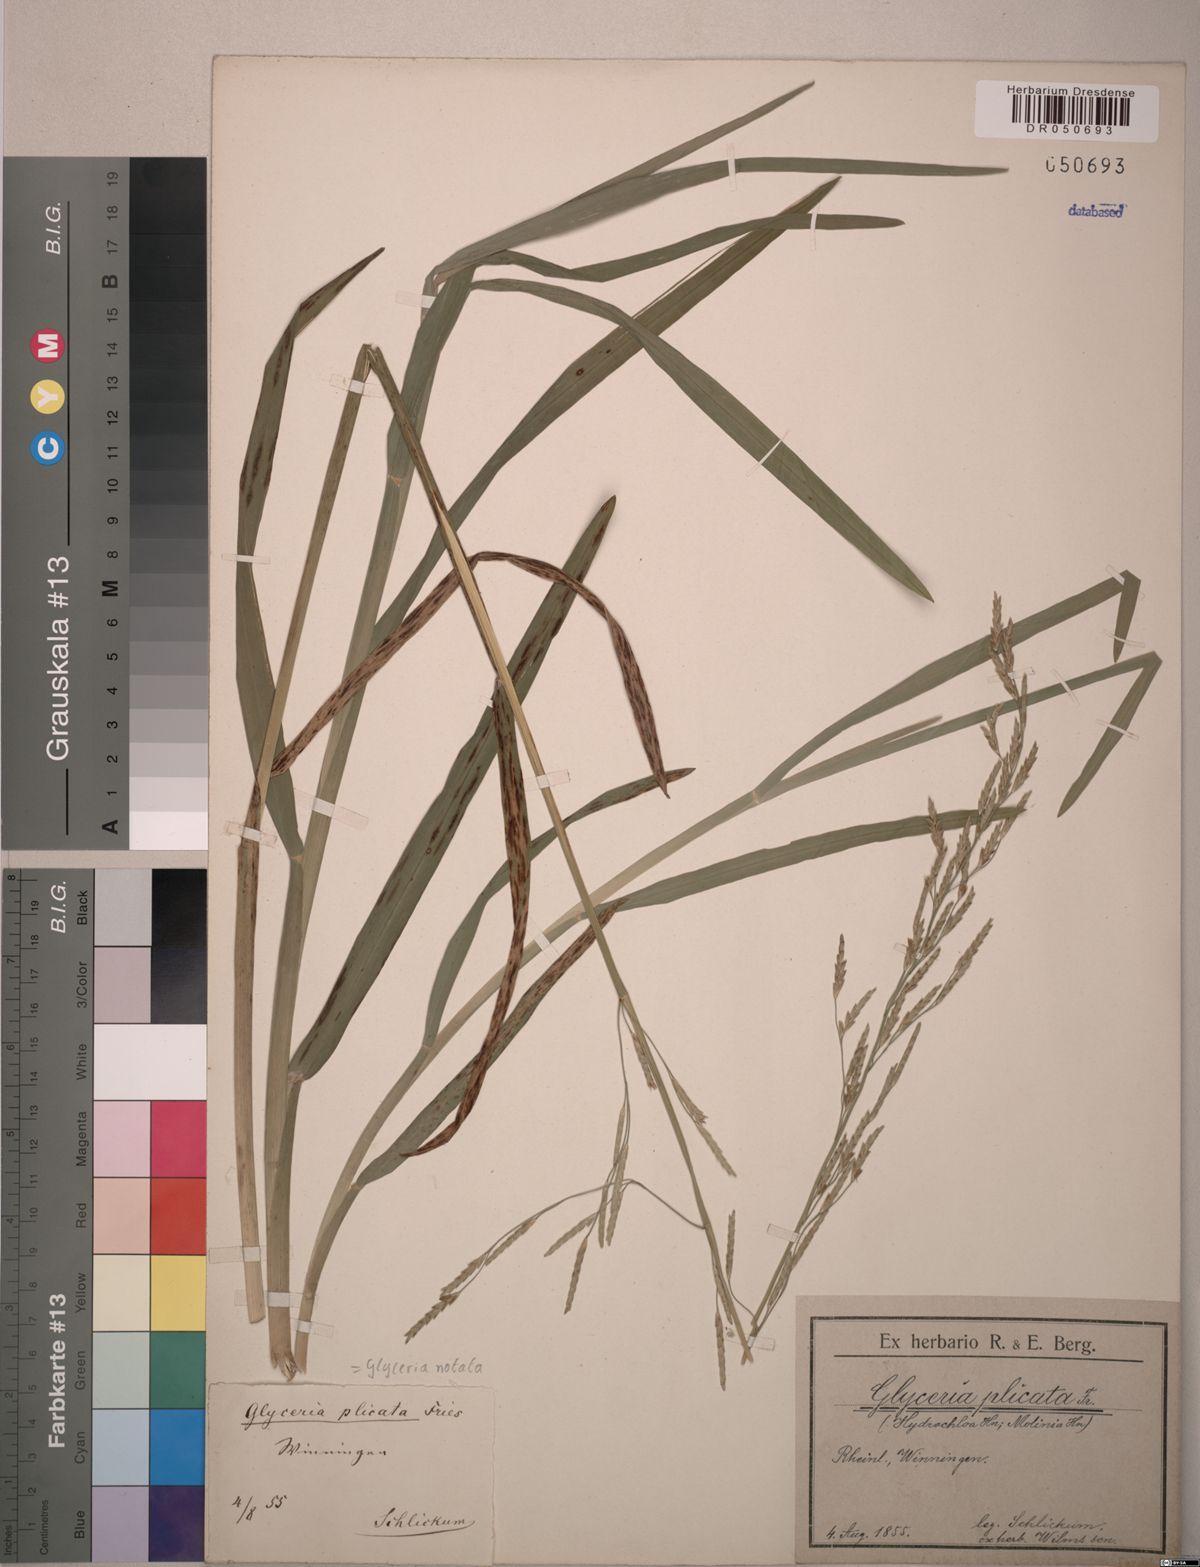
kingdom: Plantae
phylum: Tracheophyta
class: Liliopsida
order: Poales
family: Poaceae
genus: Glyceria
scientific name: Glyceria notata
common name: Plicate sweet-grass
